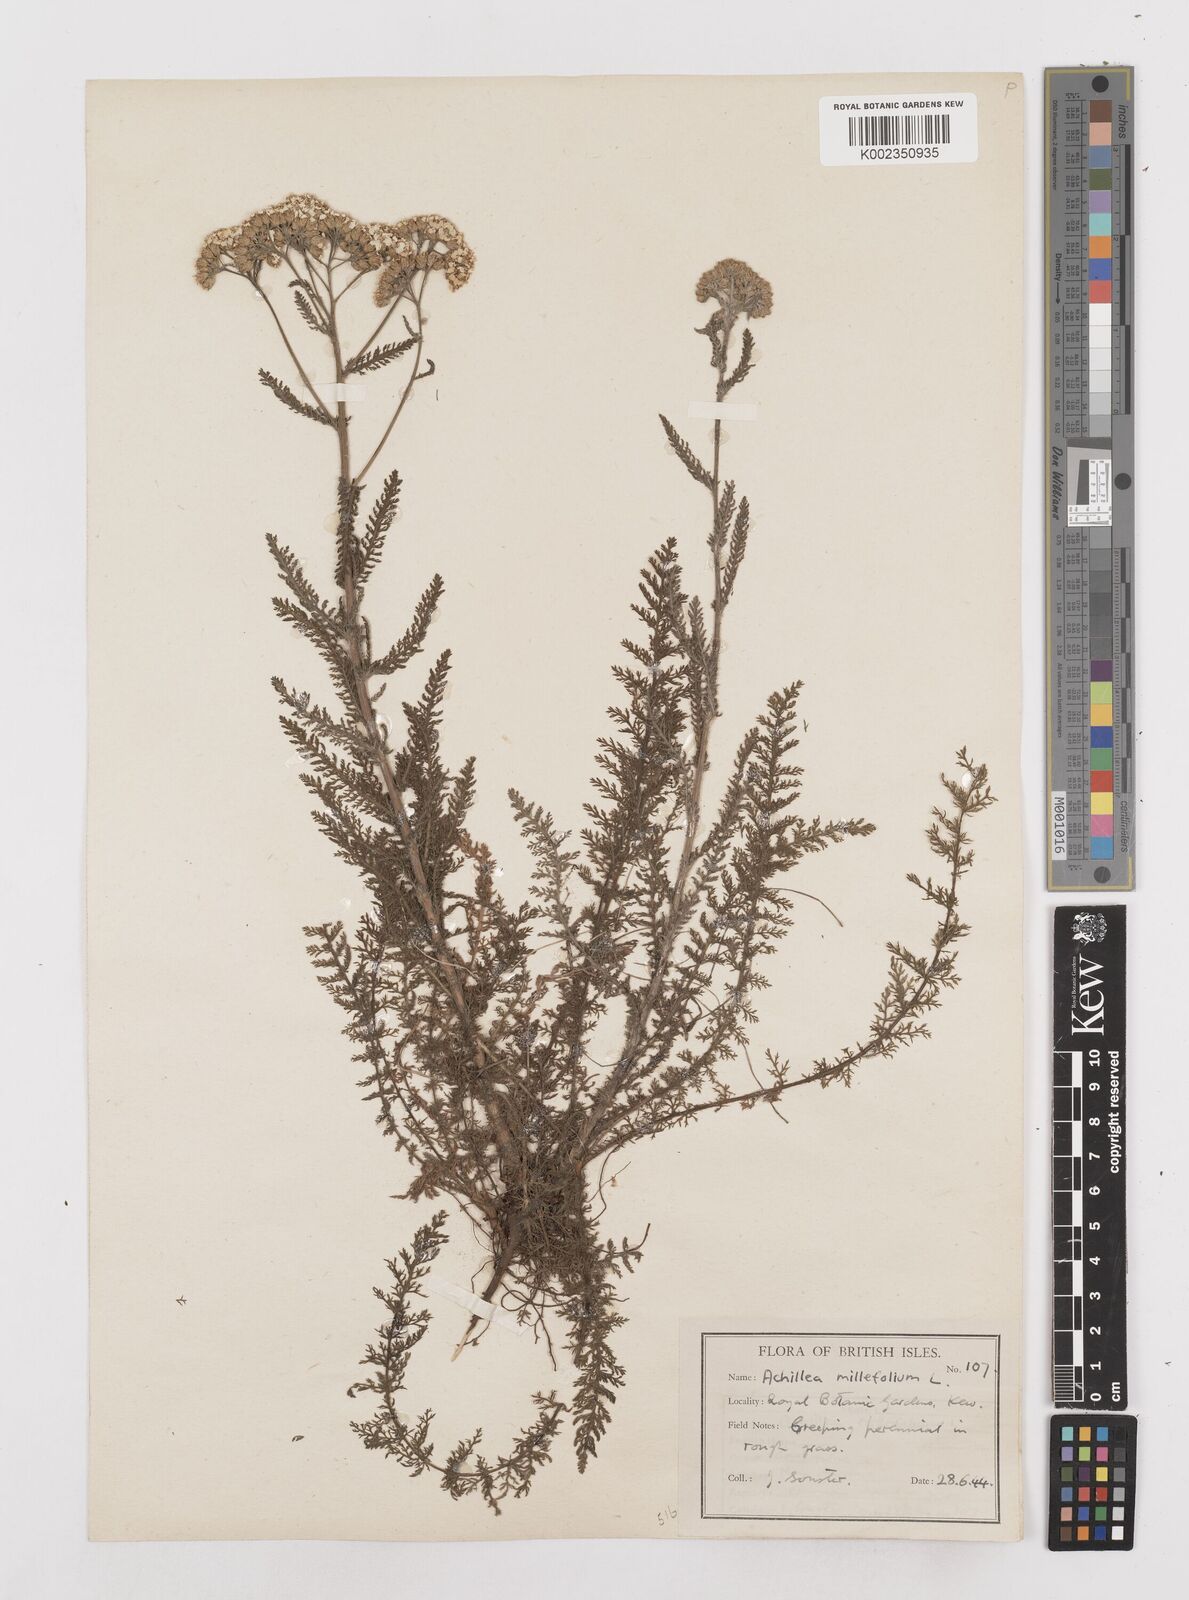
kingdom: Plantae
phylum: Tracheophyta
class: Magnoliopsida
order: Asterales
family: Asteraceae
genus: Achillea
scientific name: Achillea millefolium
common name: Yarrow
